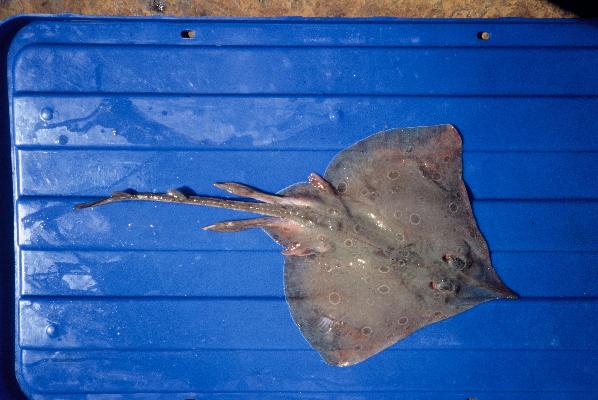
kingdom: Animalia
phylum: Chordata
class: Elasmobranchii
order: Rajiformes
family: Rajidae
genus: Okamejei
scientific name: Okamejei heemstrai
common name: East african skate
